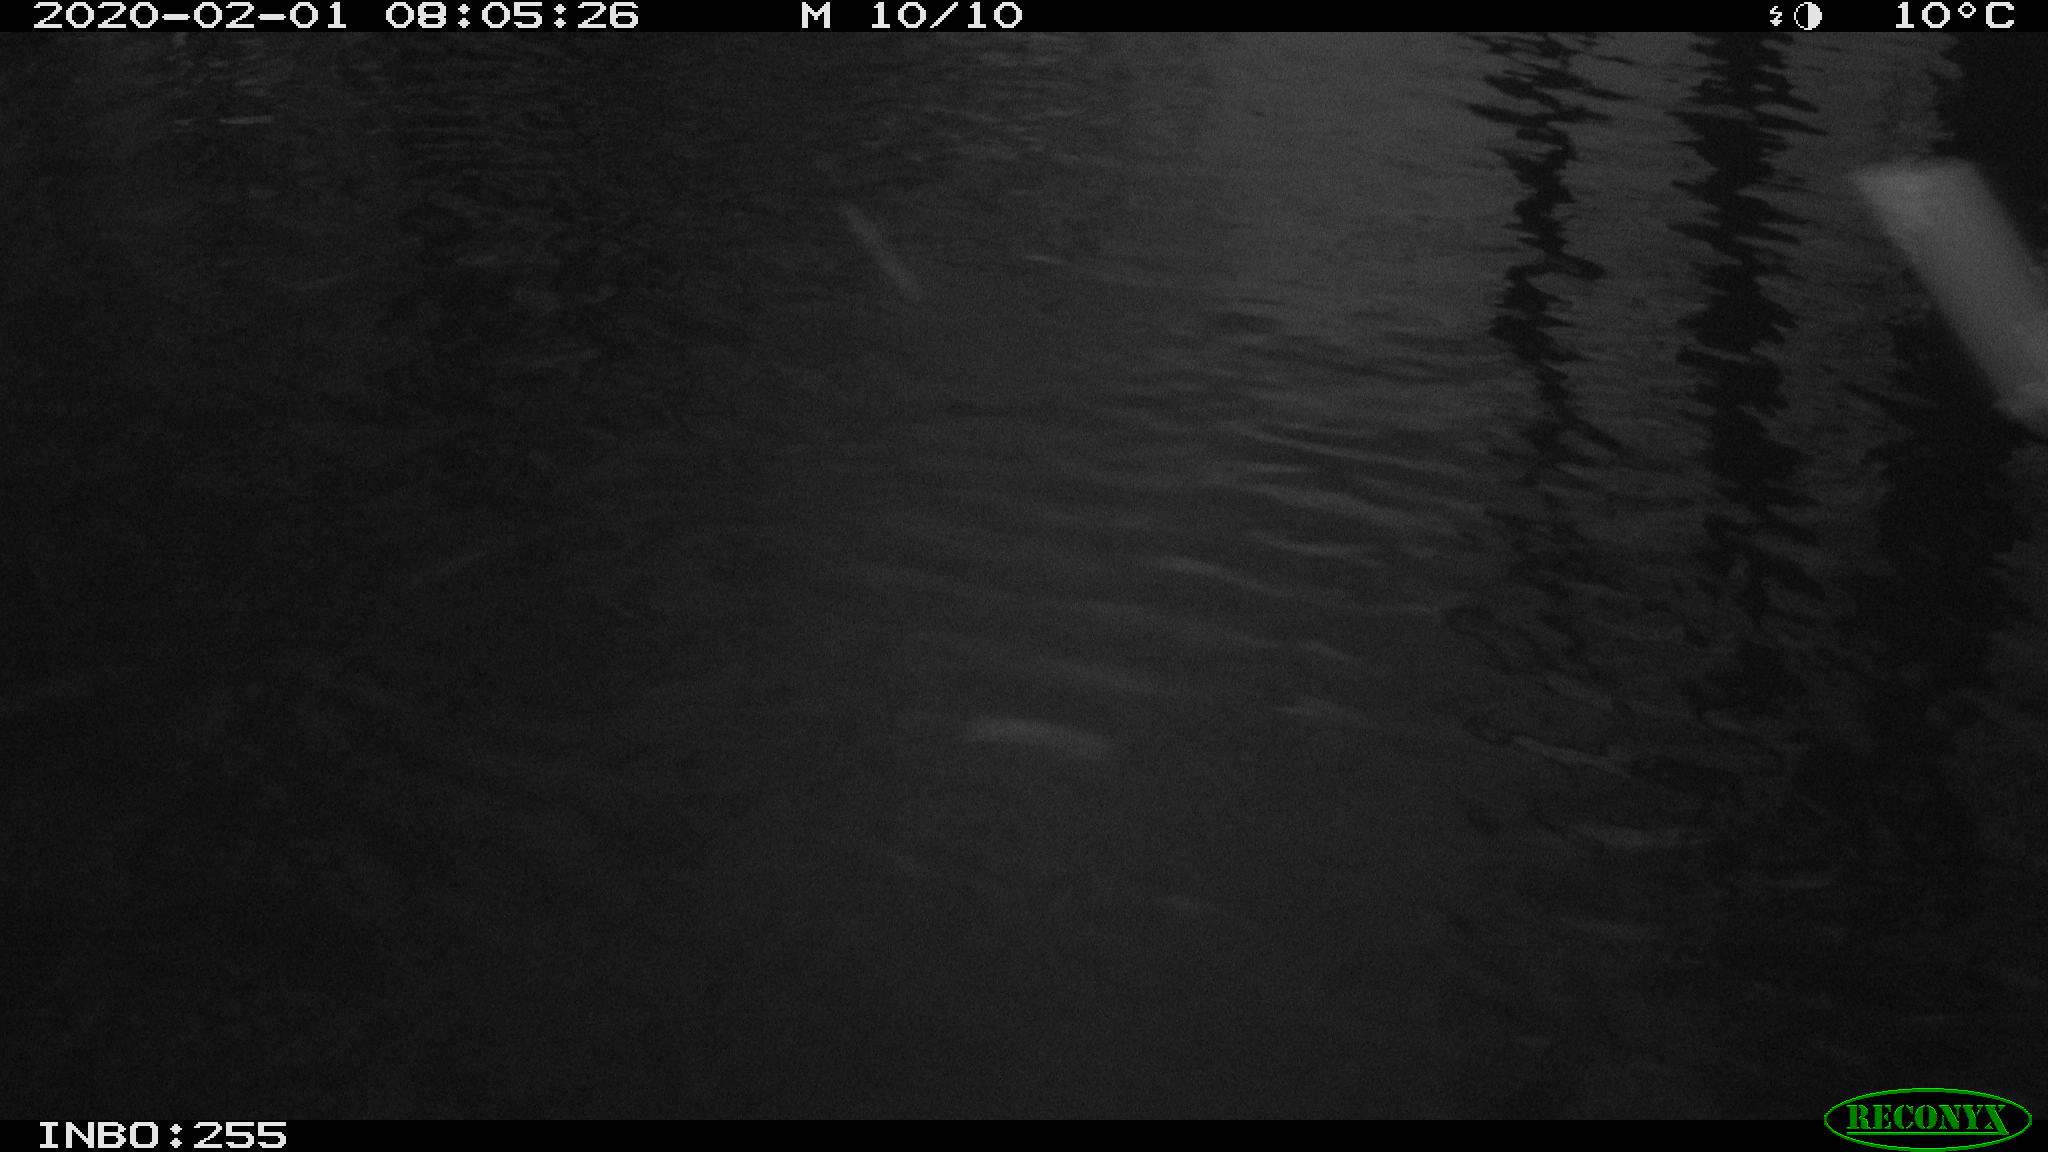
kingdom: Animalia
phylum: Chordata
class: Aves
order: Gruiformes
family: Rallidae
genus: Gallinula
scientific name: Gallinula chloropus
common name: Common moorhen
